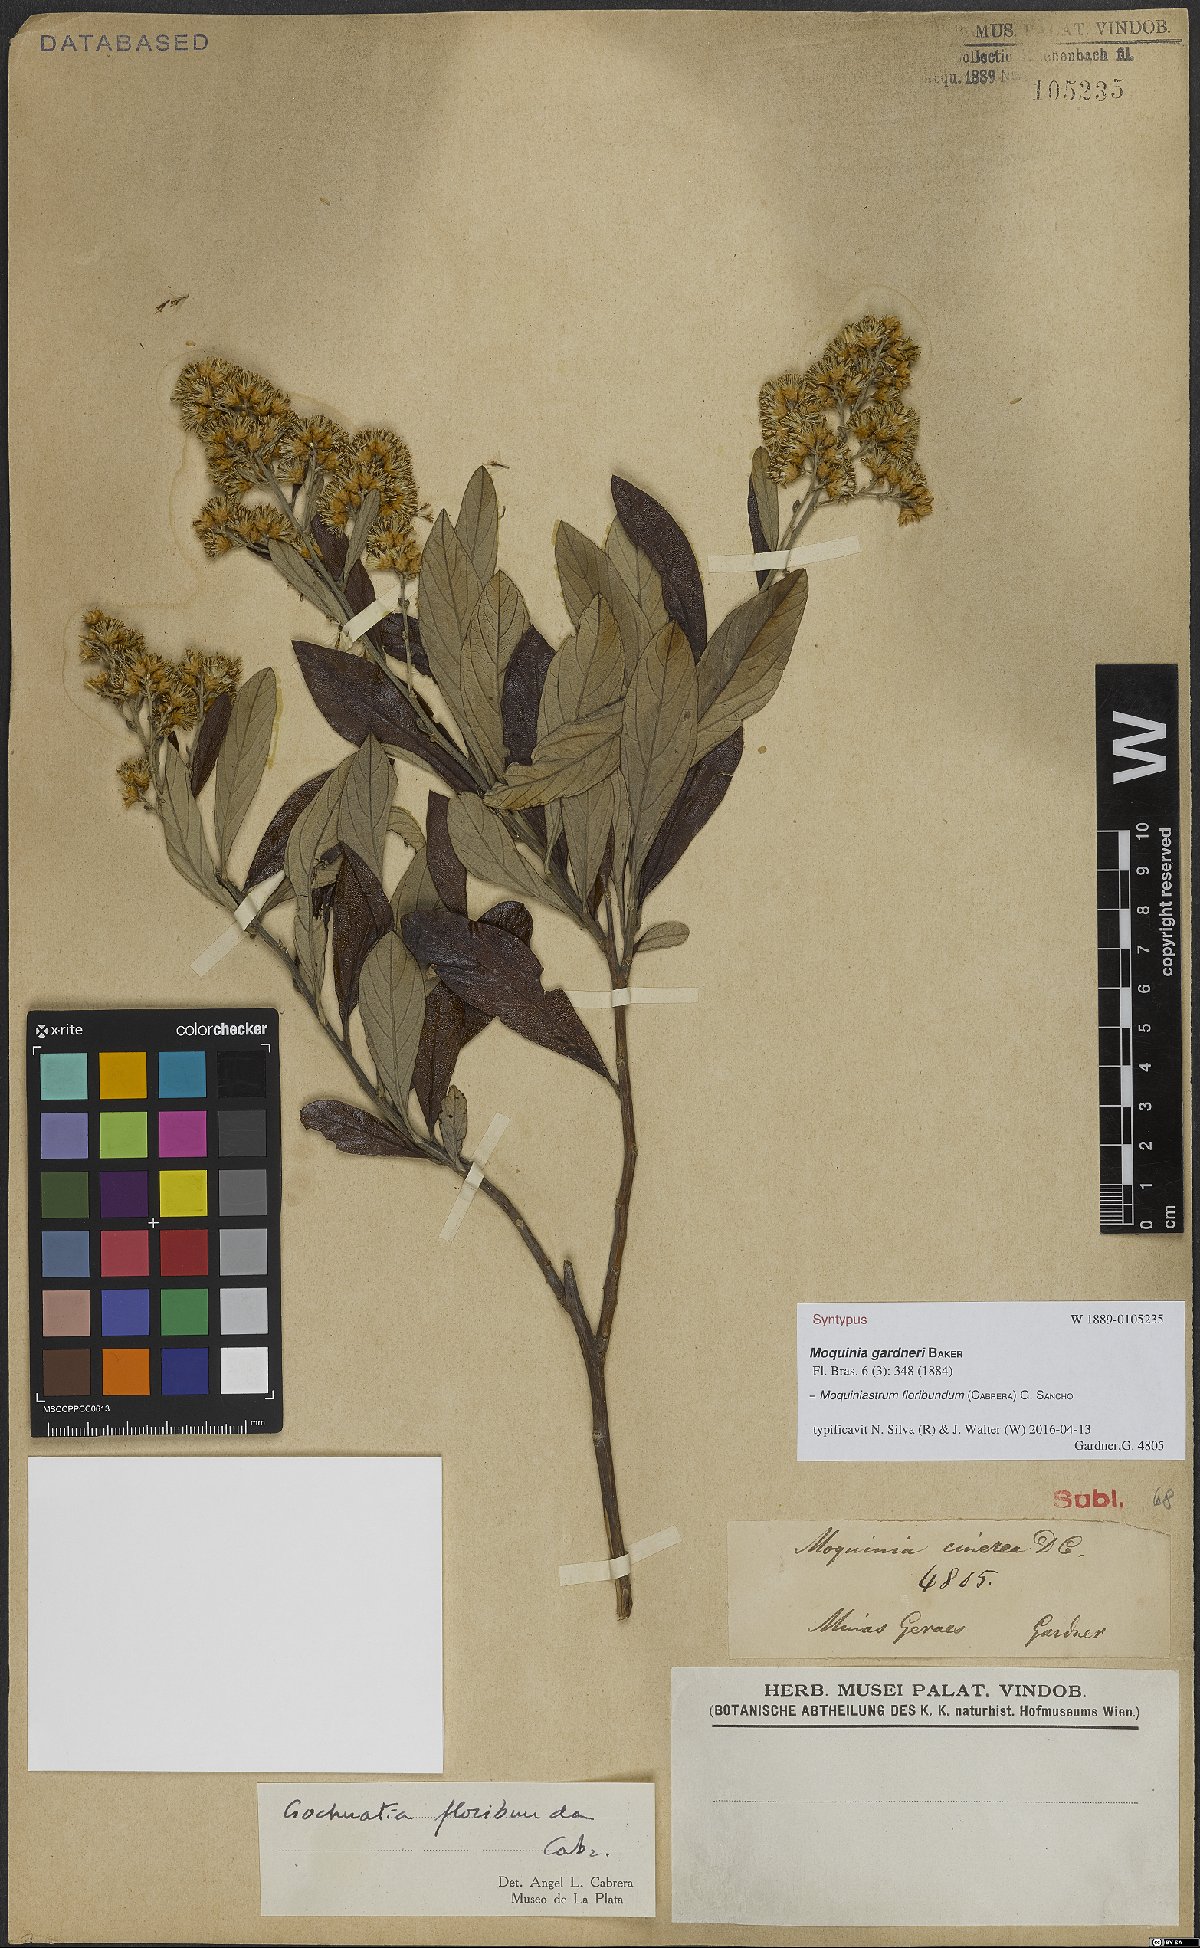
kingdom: Plantae
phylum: Tracheophyta
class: Magnoliopsida
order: Asterales
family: Asteraceae
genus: Moquiniastrum
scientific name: Moquiniastrum floribundum
